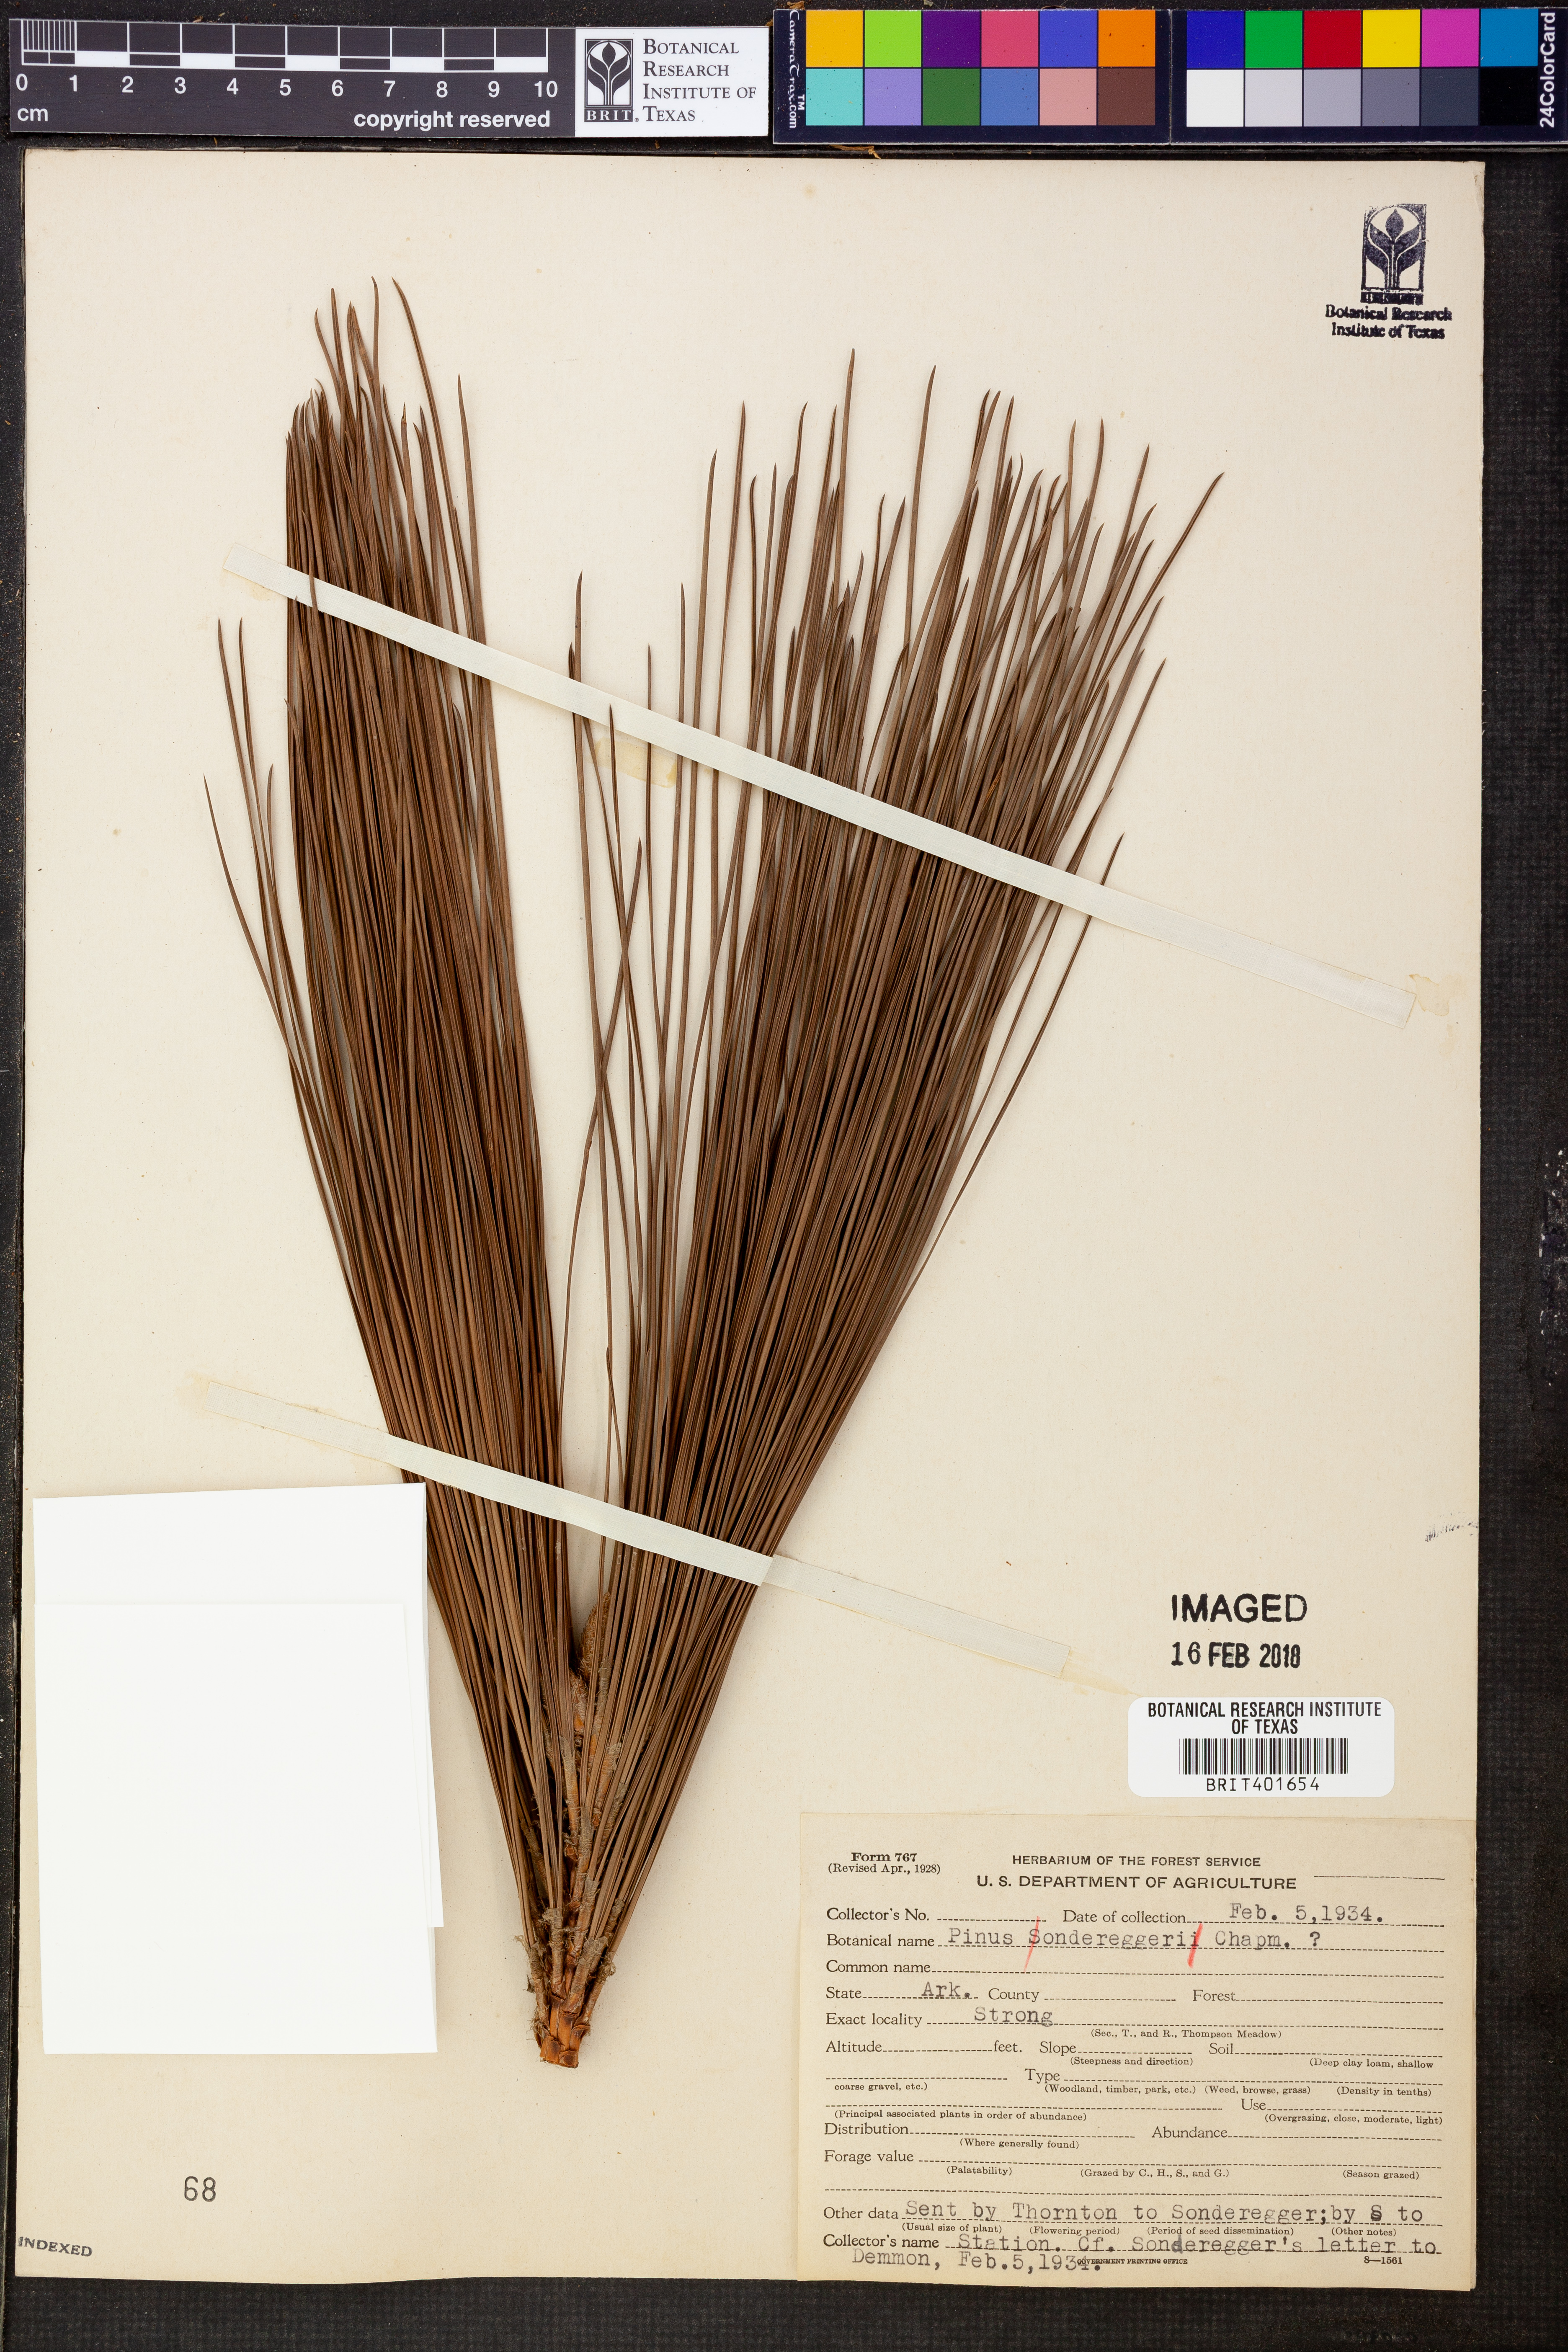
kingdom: Plantae
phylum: Tracheophyta
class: Pinopsida
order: Pinales
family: Pinaceae
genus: Pinus
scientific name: Pinus sondereggeri
